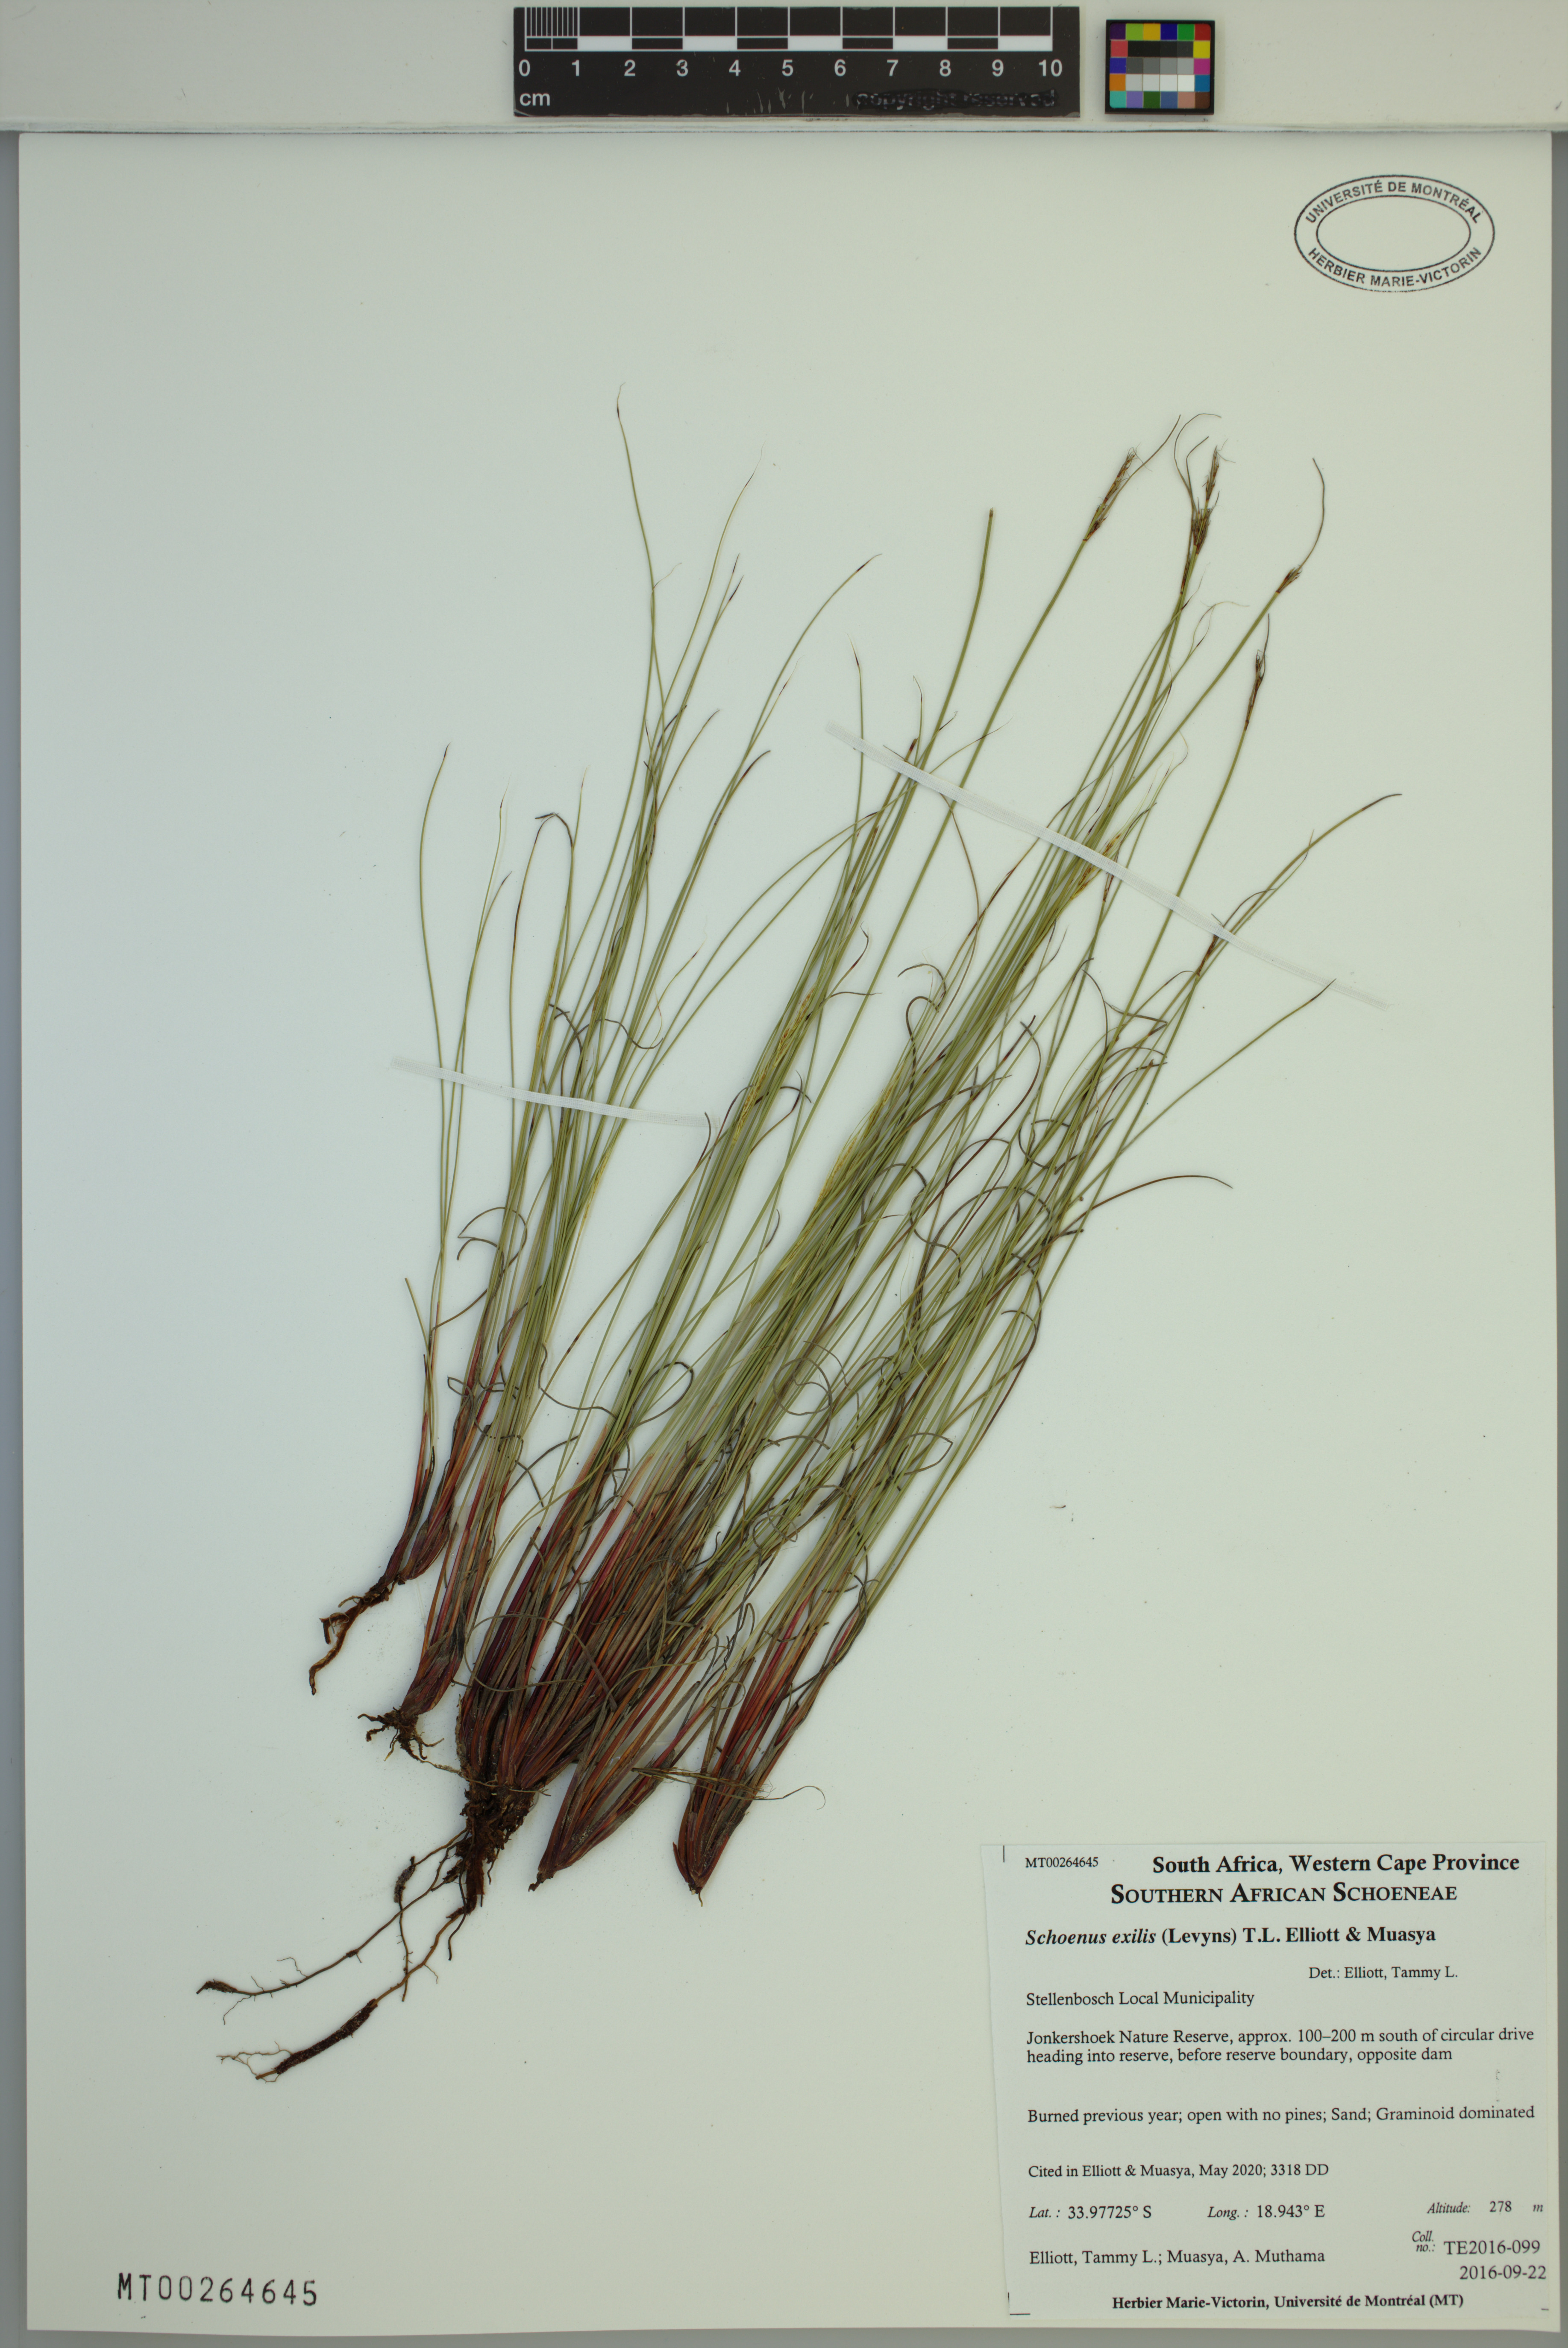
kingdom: Plantae
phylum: Tracheophyta
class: Liliopsida
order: Poales
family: Cyperaceae
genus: Schoenus
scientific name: Schoenus exilis
